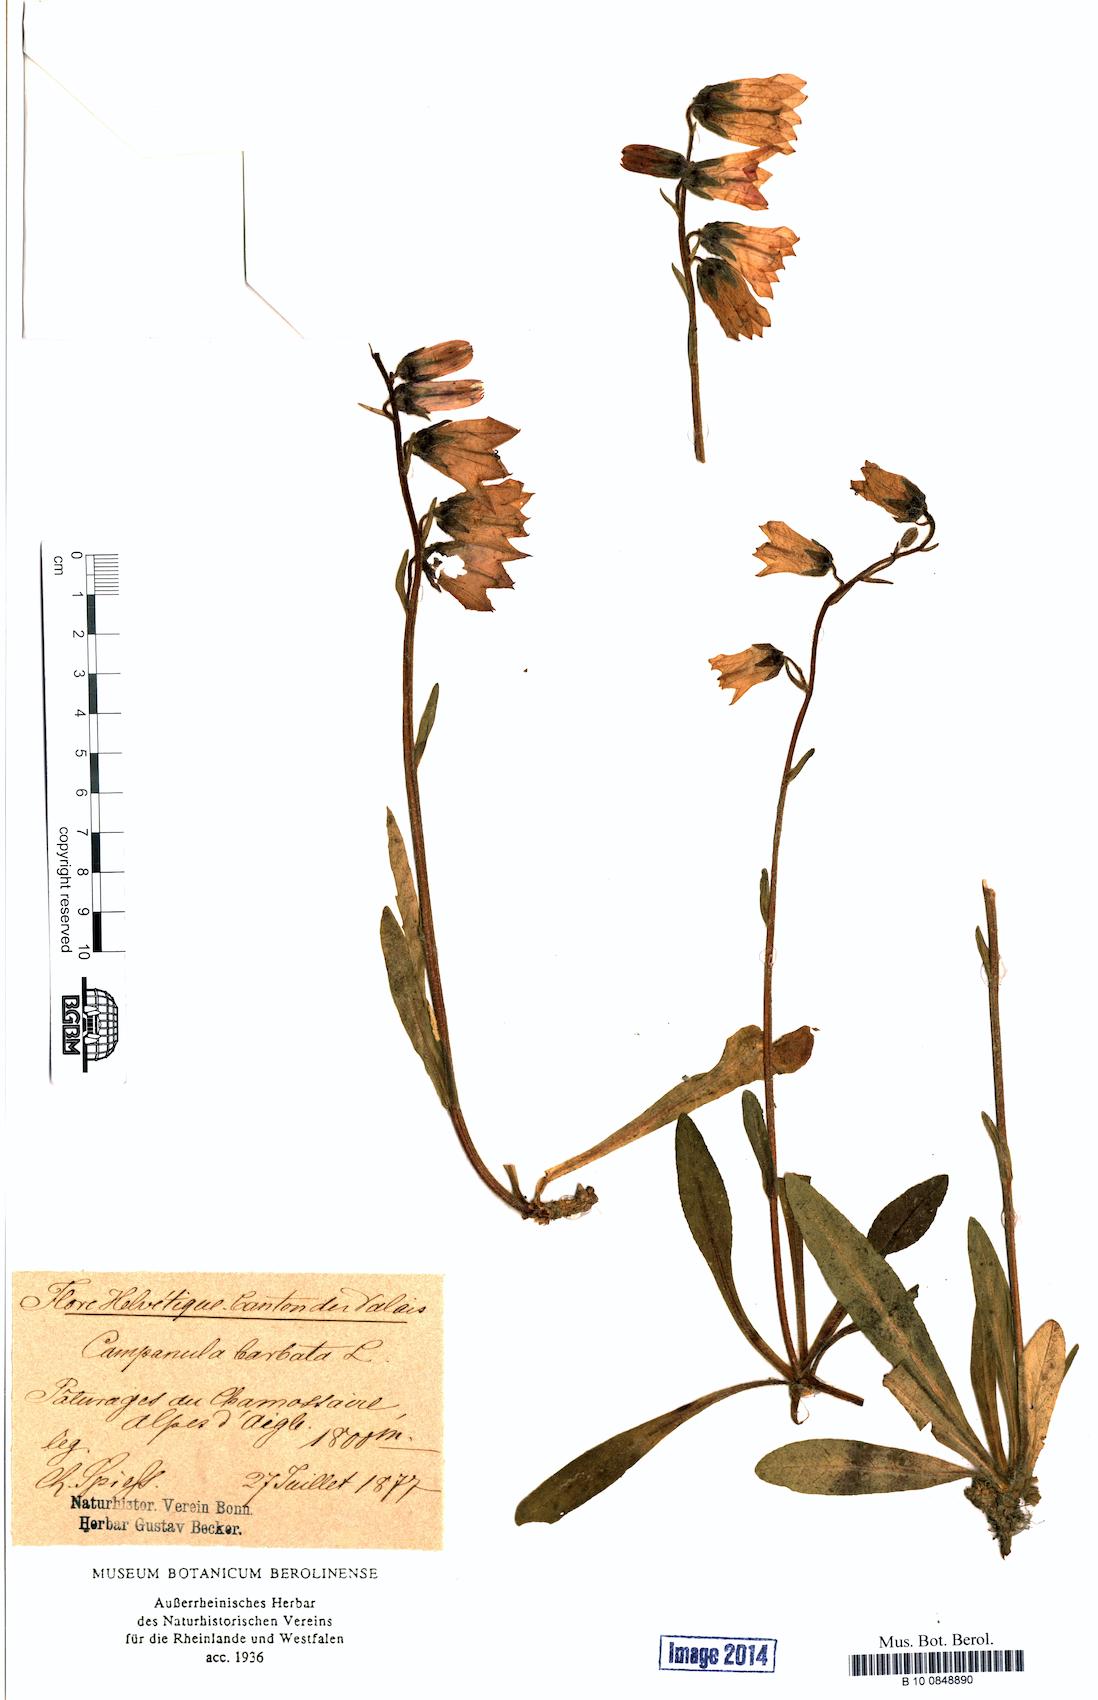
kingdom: Plantae
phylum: Tracheophyta
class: Magnoliopsida
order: Asterales
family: Campanulaceae
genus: Campanula
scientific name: Campanula barbata
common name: Bearded bellflower
